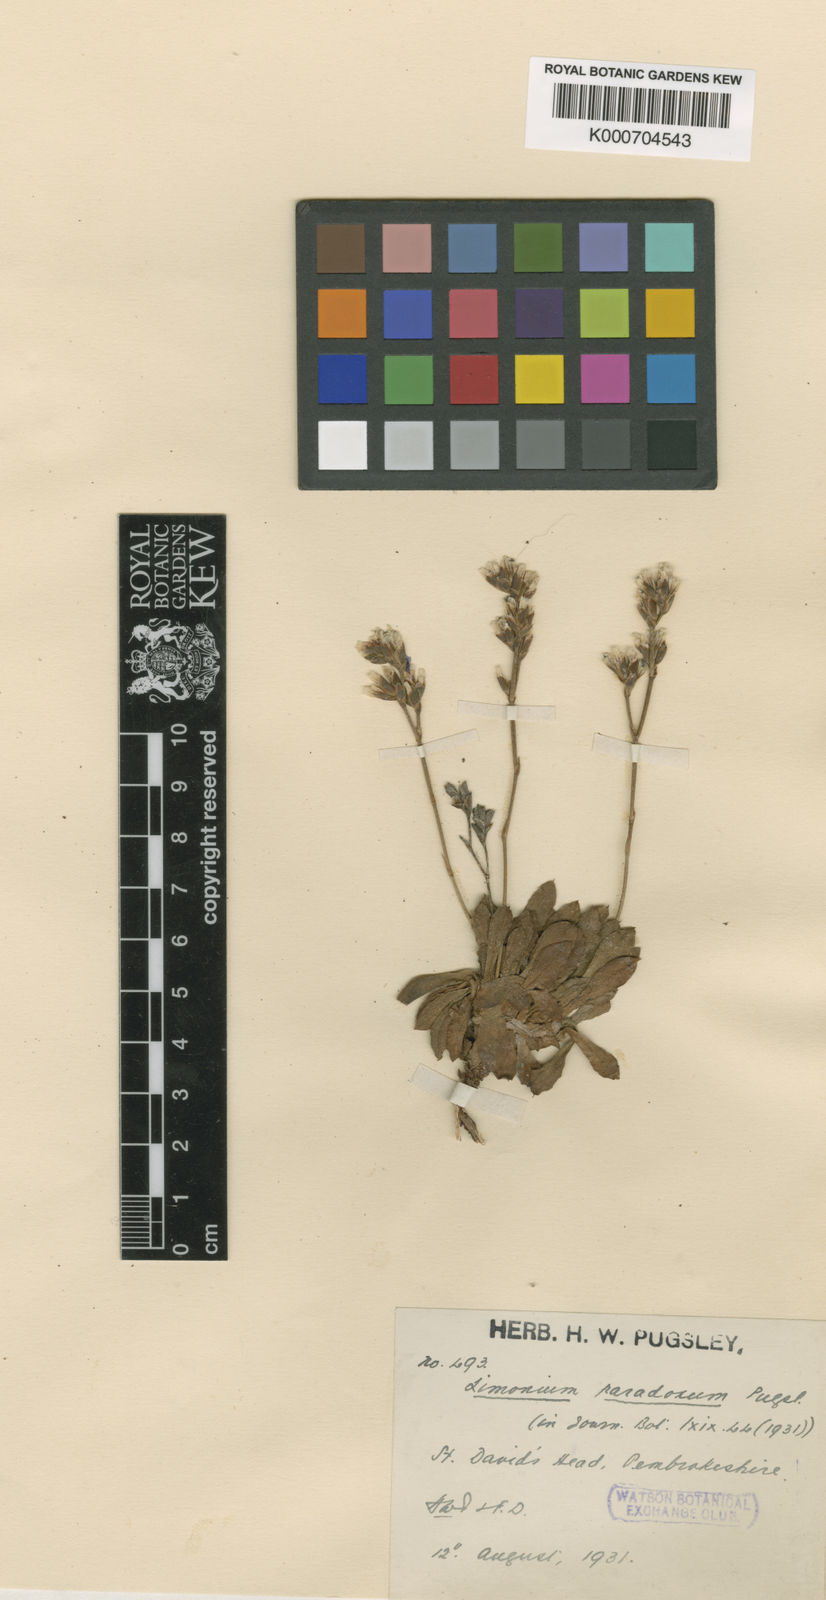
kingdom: Plantae
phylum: Tracheophyta
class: Magnoliopsida
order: Caryophyllales
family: Plumbaginaceae
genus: Limonium
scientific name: Limonium paradoxum
